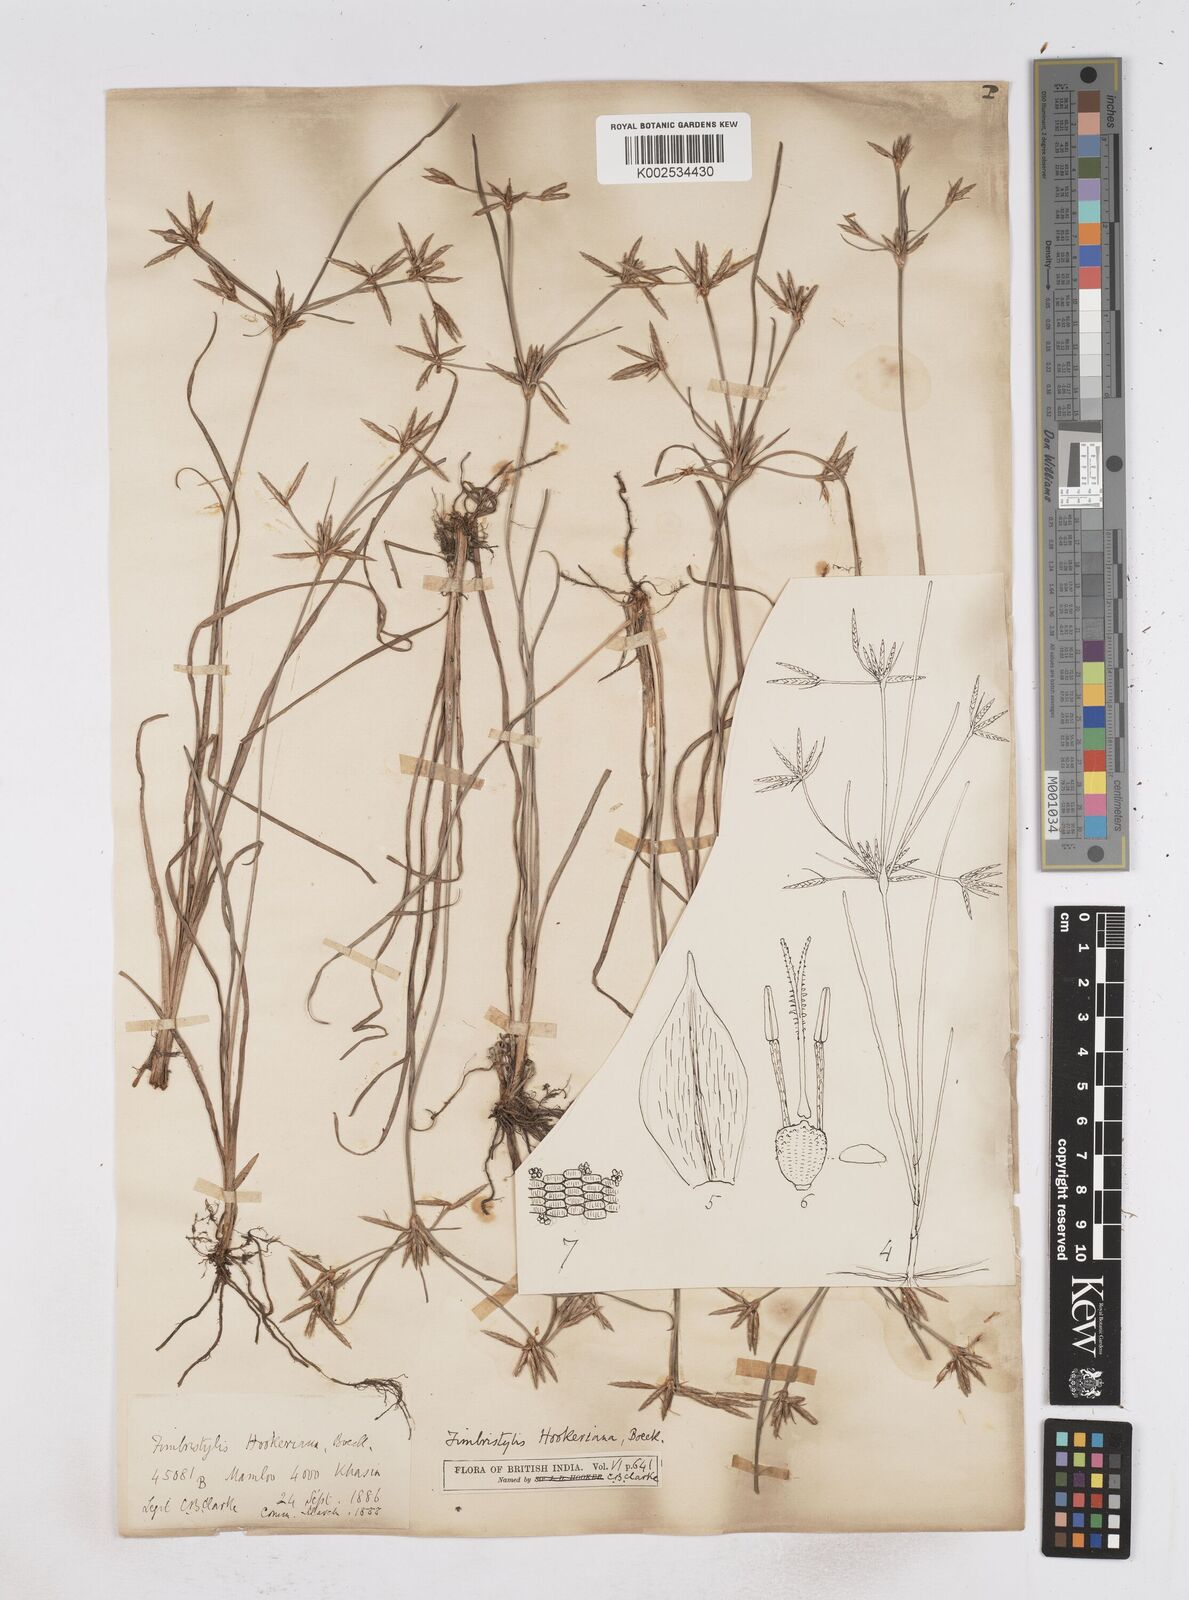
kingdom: Plantae
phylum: Tracheophyta
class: Liliopsida
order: Poales
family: Cyperaceae
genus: Fimbristylis
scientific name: Fimbristylis hookeriana
